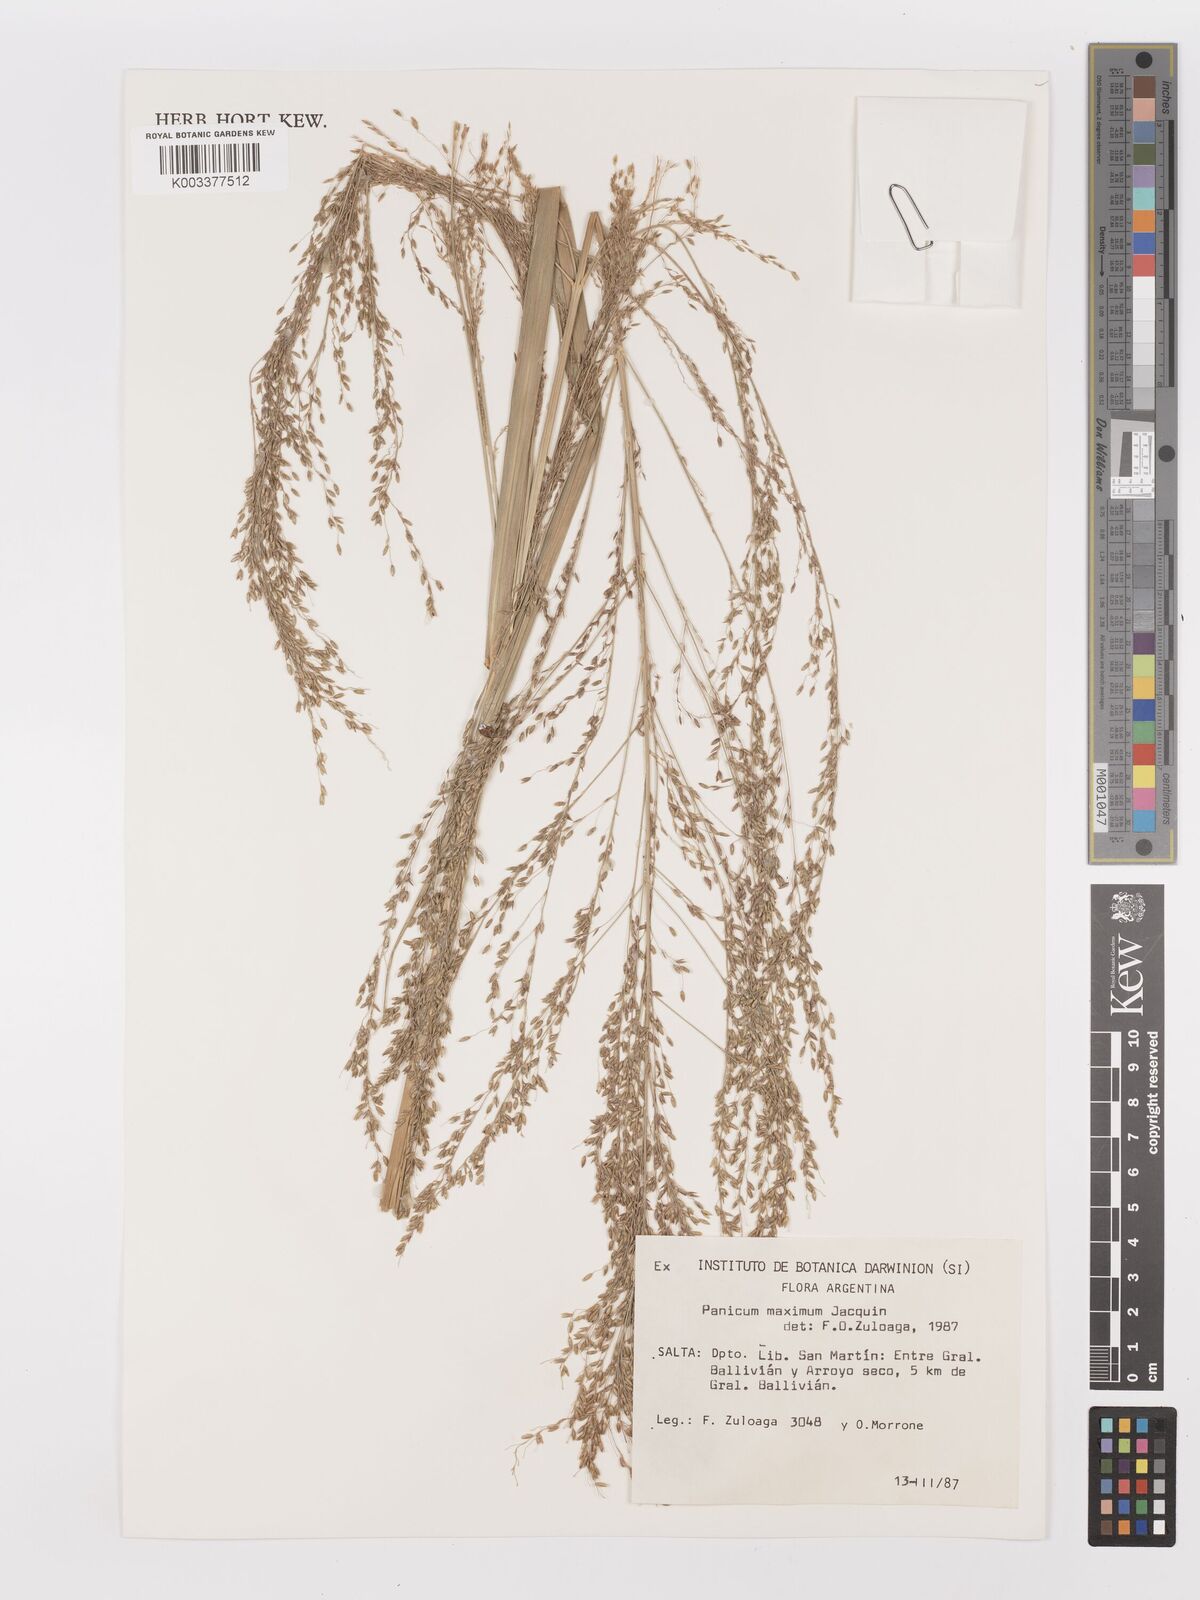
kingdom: Plantae
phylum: Tracheophyta
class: Liliopsida
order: Poales
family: Poaceae
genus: Megathyrsus
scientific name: Megathyrsus maximus
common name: Guineagrass
